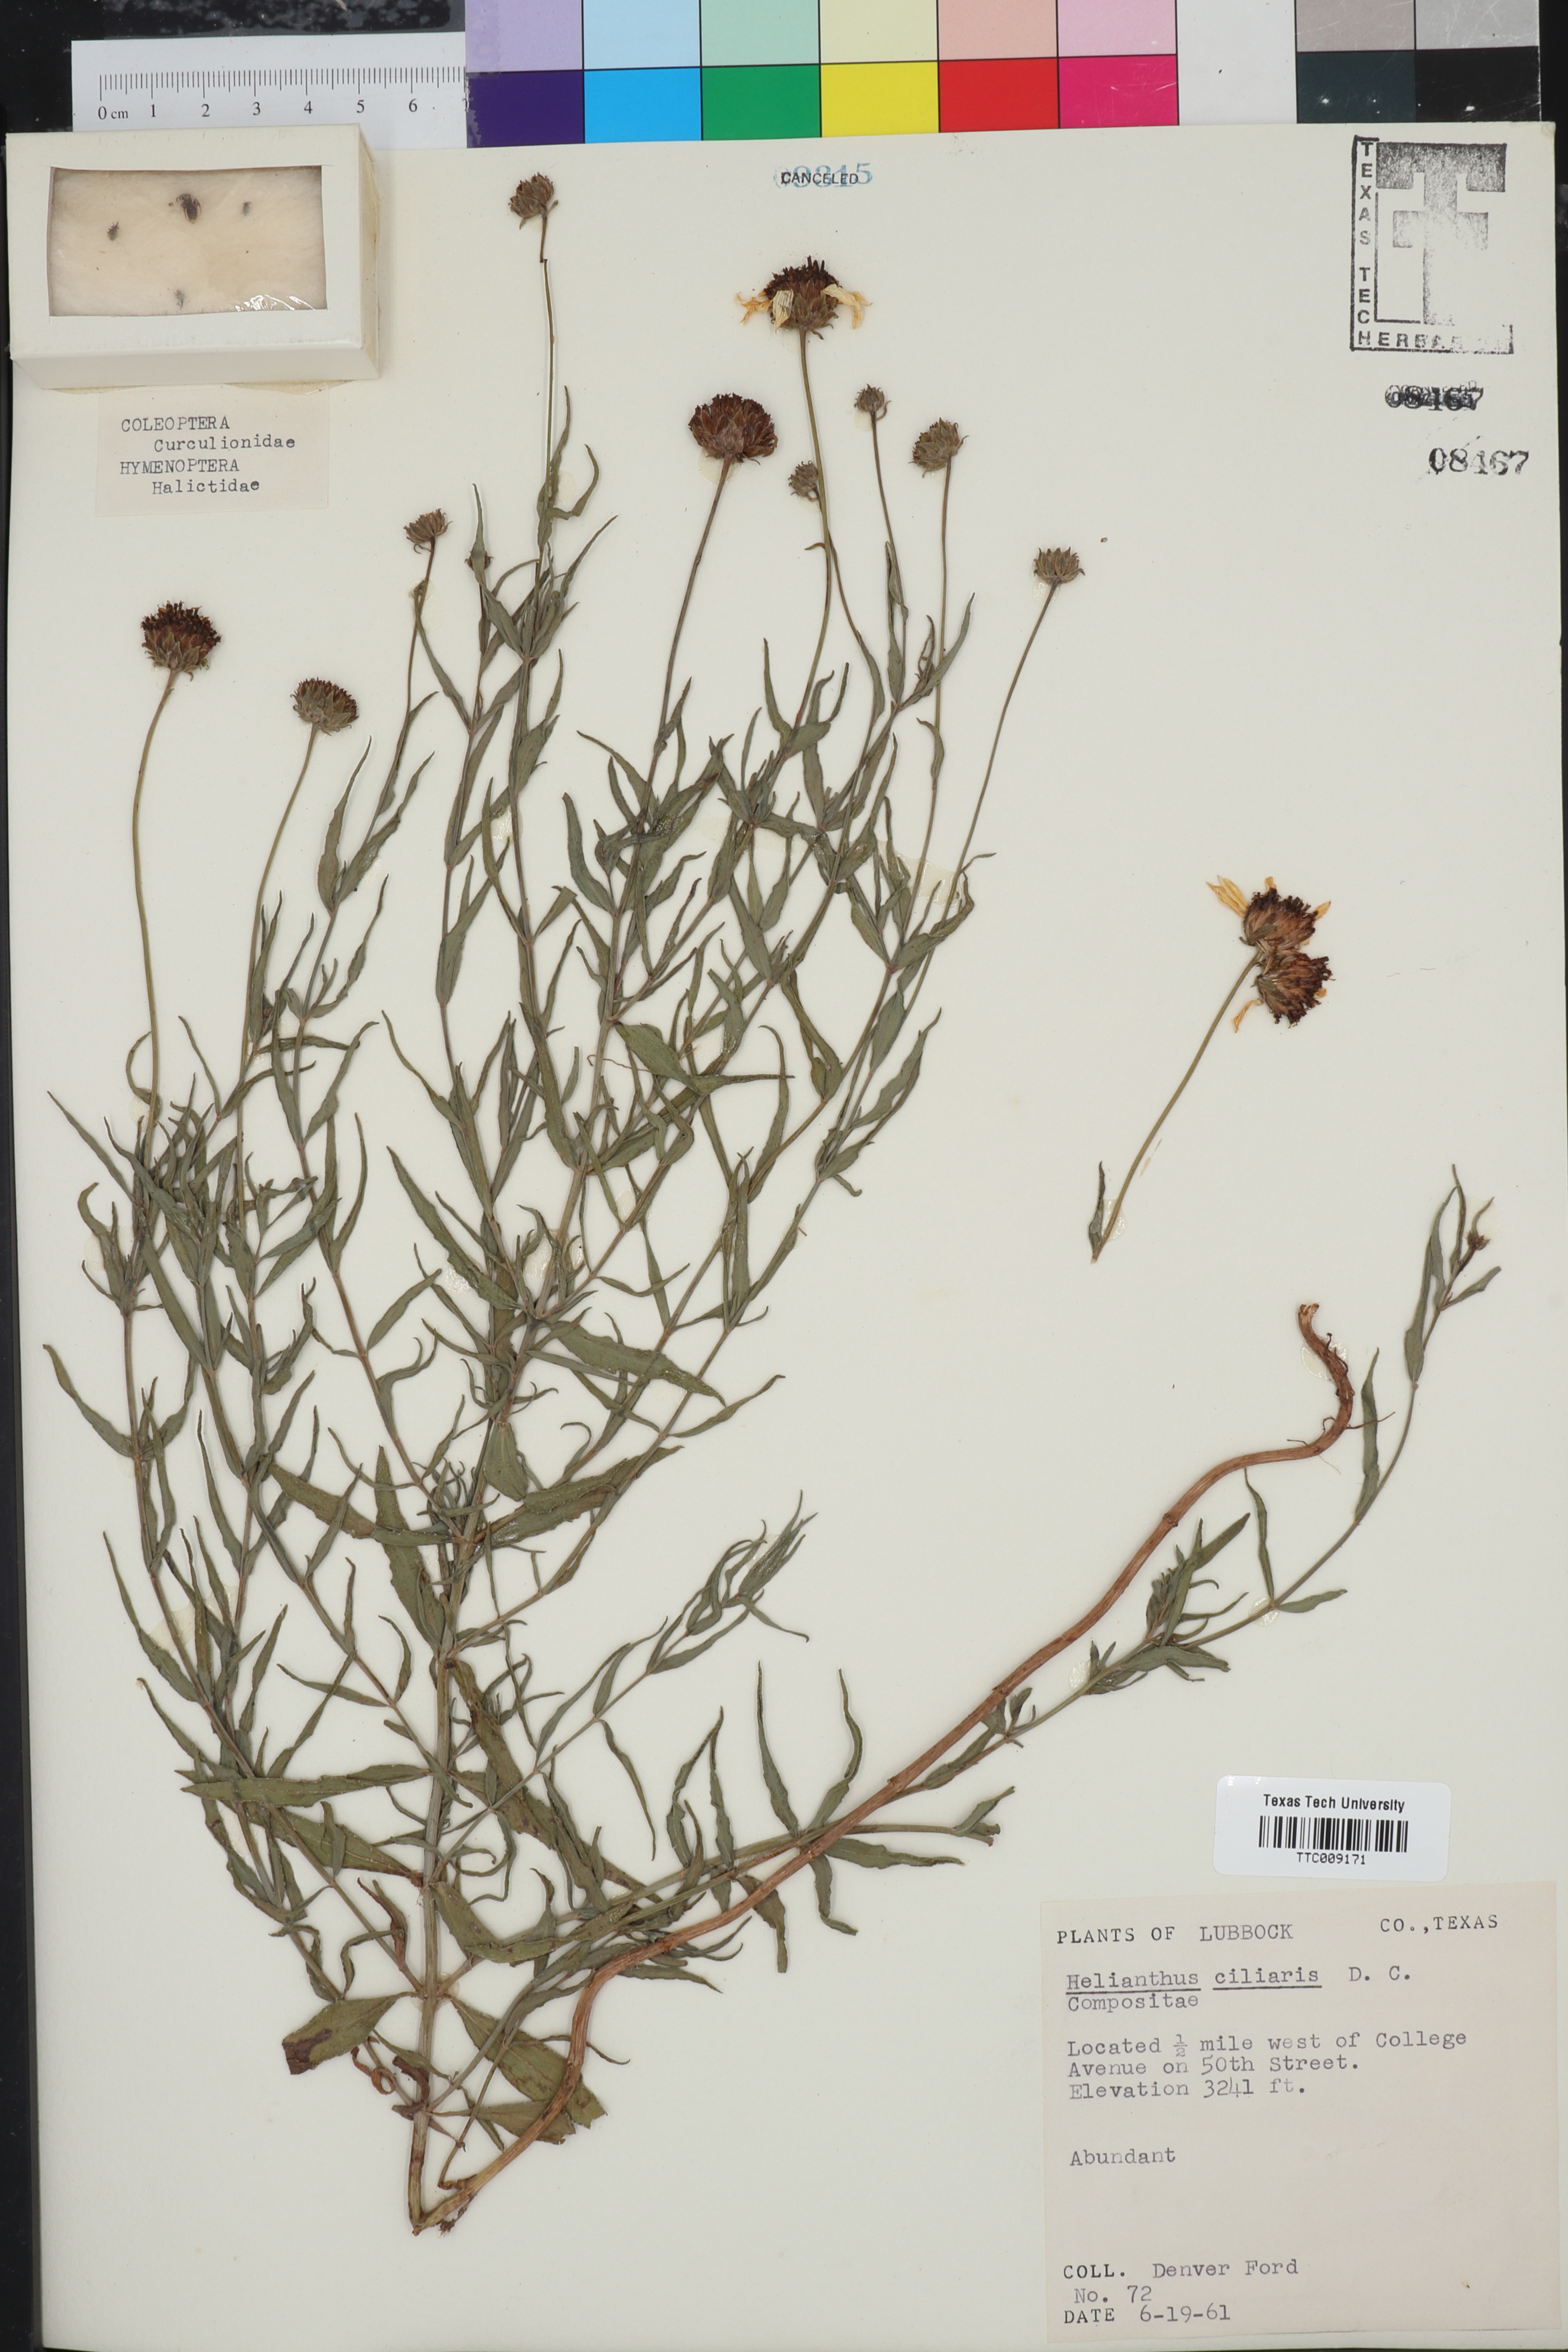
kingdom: Plantae
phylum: Tracheophyta
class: Magnoliopsida
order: Asterales
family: Asteraceae
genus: Helianthus
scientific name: Helianthus ciliaris
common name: Texas blueweed
